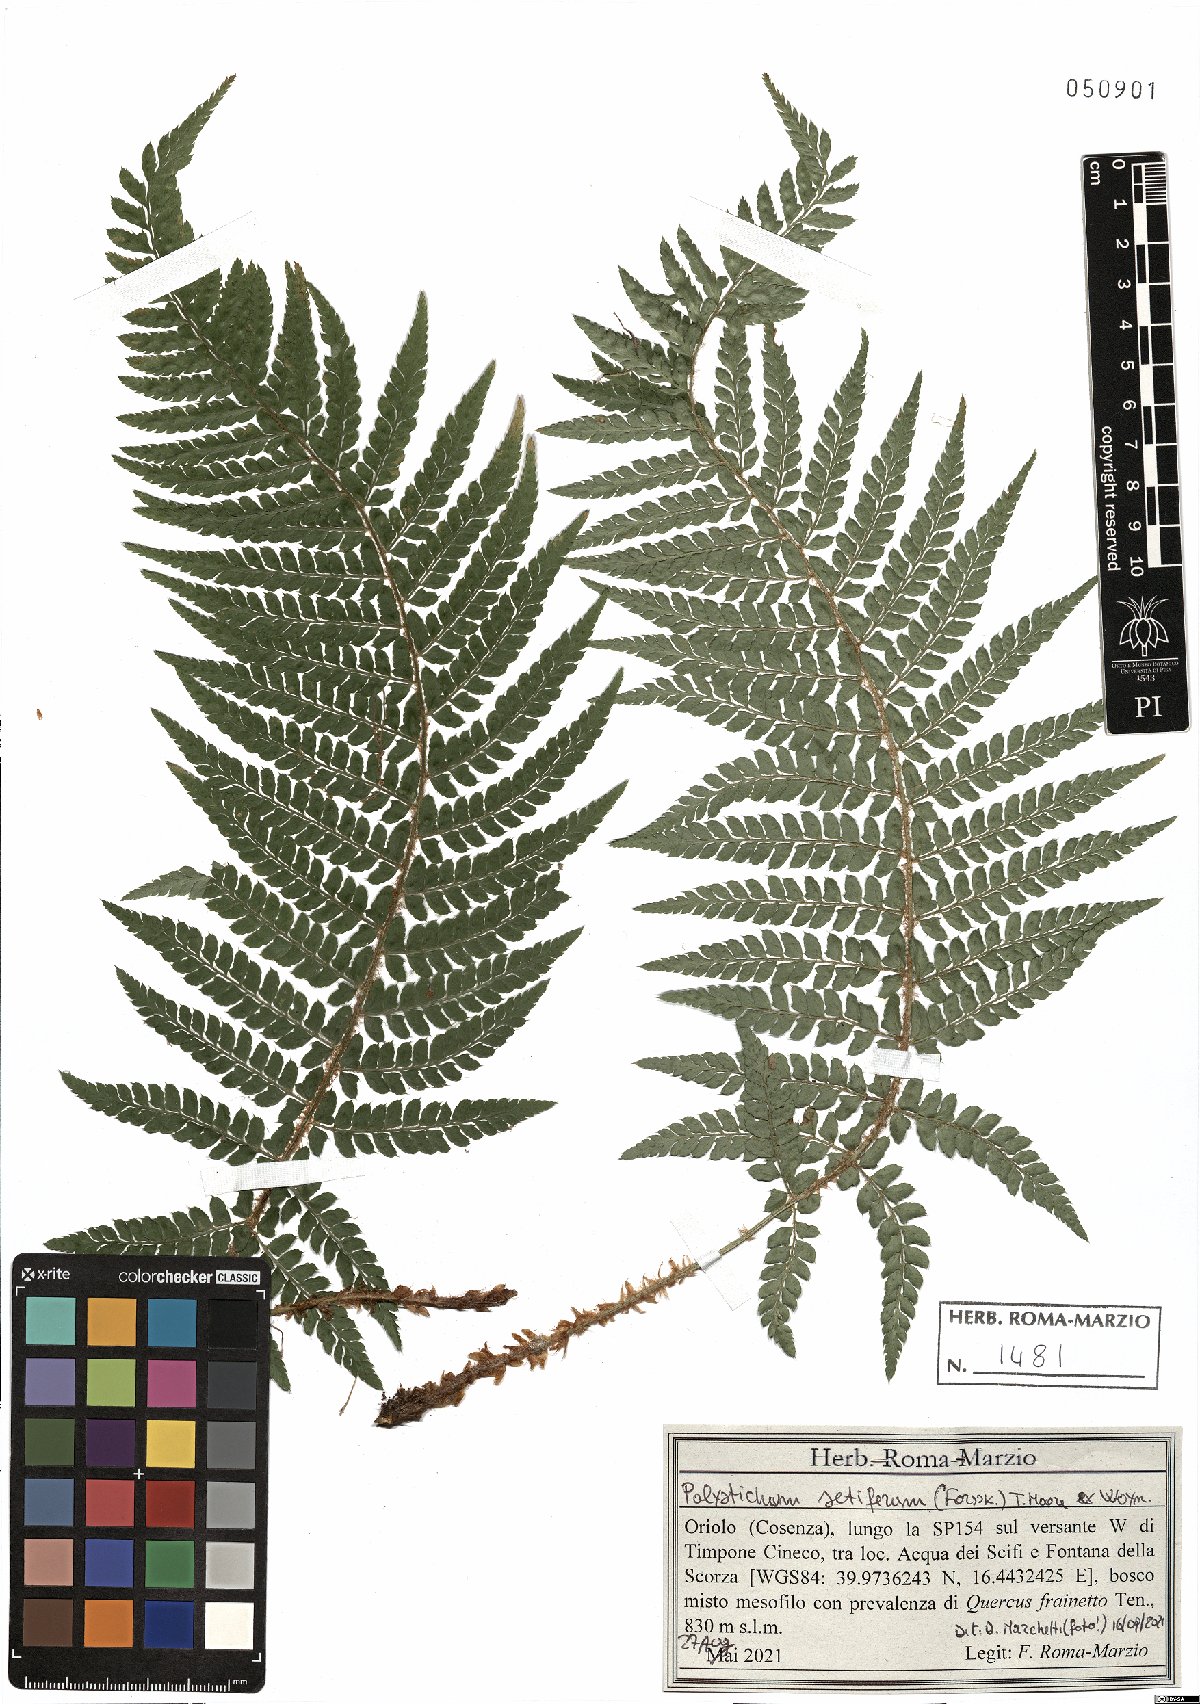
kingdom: Plantae
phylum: Tracheophyta
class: Polypodiopsida
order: Polypodiales
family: Dryopteridaceae
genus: Polystichum
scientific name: Polystichum setiferum
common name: Soft shield-fern
